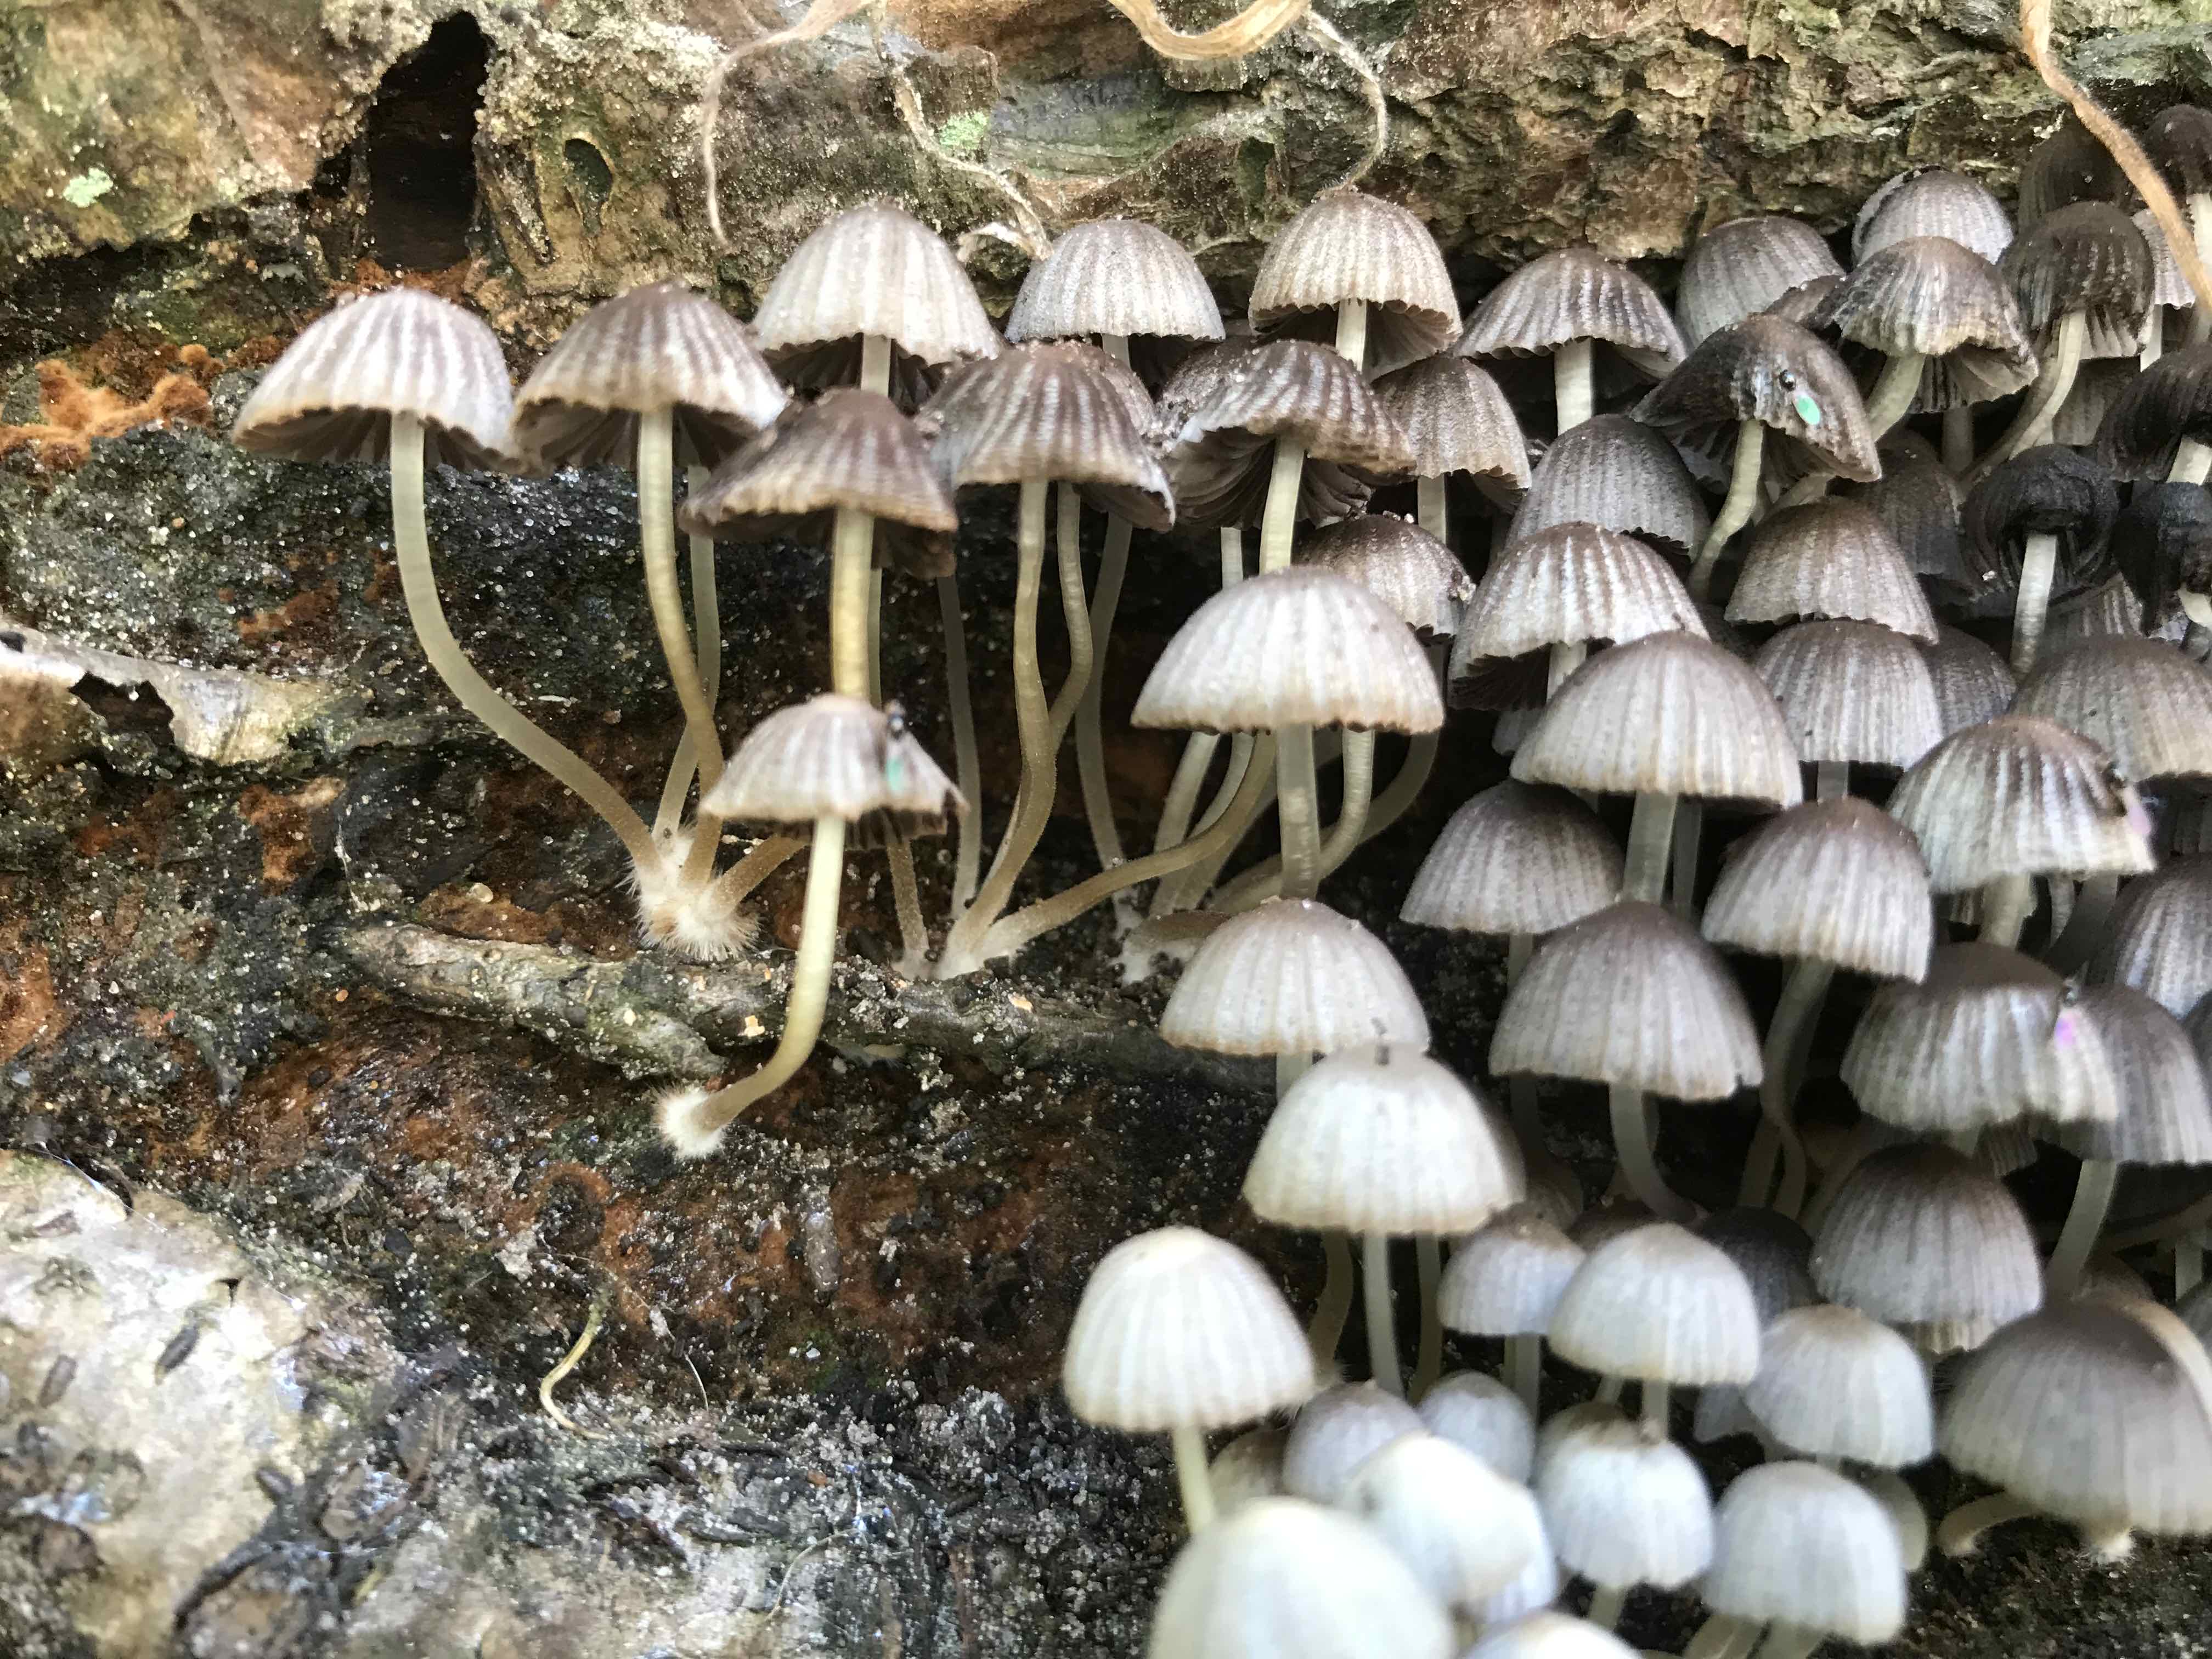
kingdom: Fungi
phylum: Basidiomycota
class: Agaricomycetes
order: Agaricales
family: Psathyrellaceae
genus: Coprinellus
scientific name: Coprinellus disseminatus
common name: bredsået blækhat
